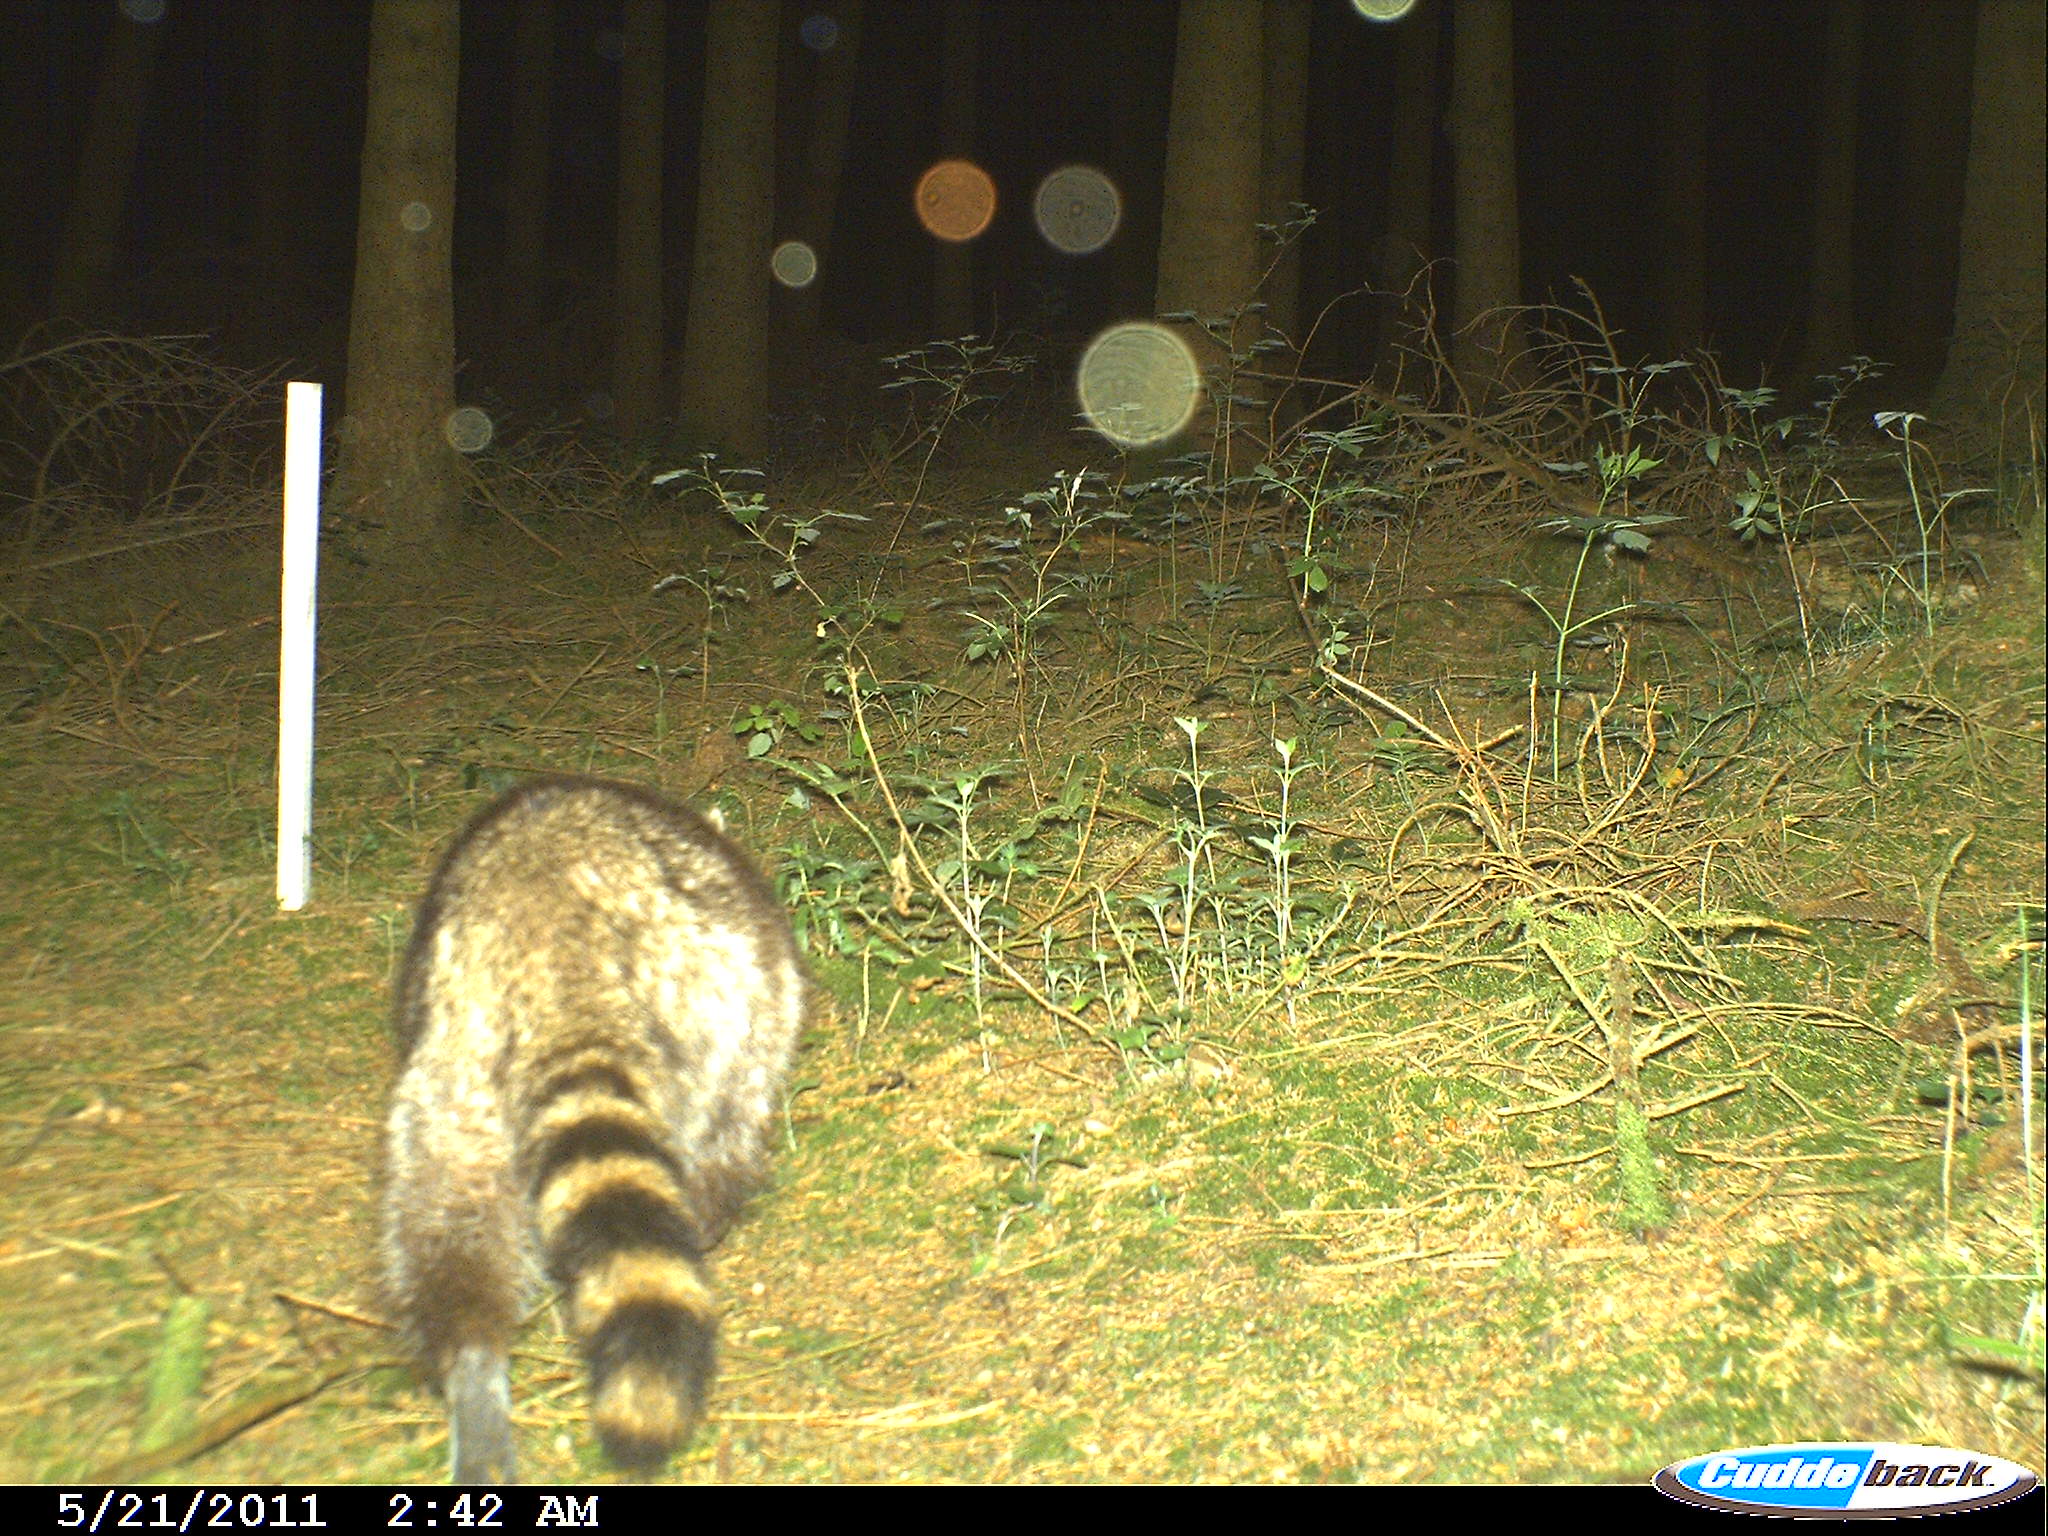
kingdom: Animalia
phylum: Chordata
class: Mammalia
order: Carnivora
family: Procyonidae
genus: Procyon
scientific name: Procyon lotor
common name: Raccoon
